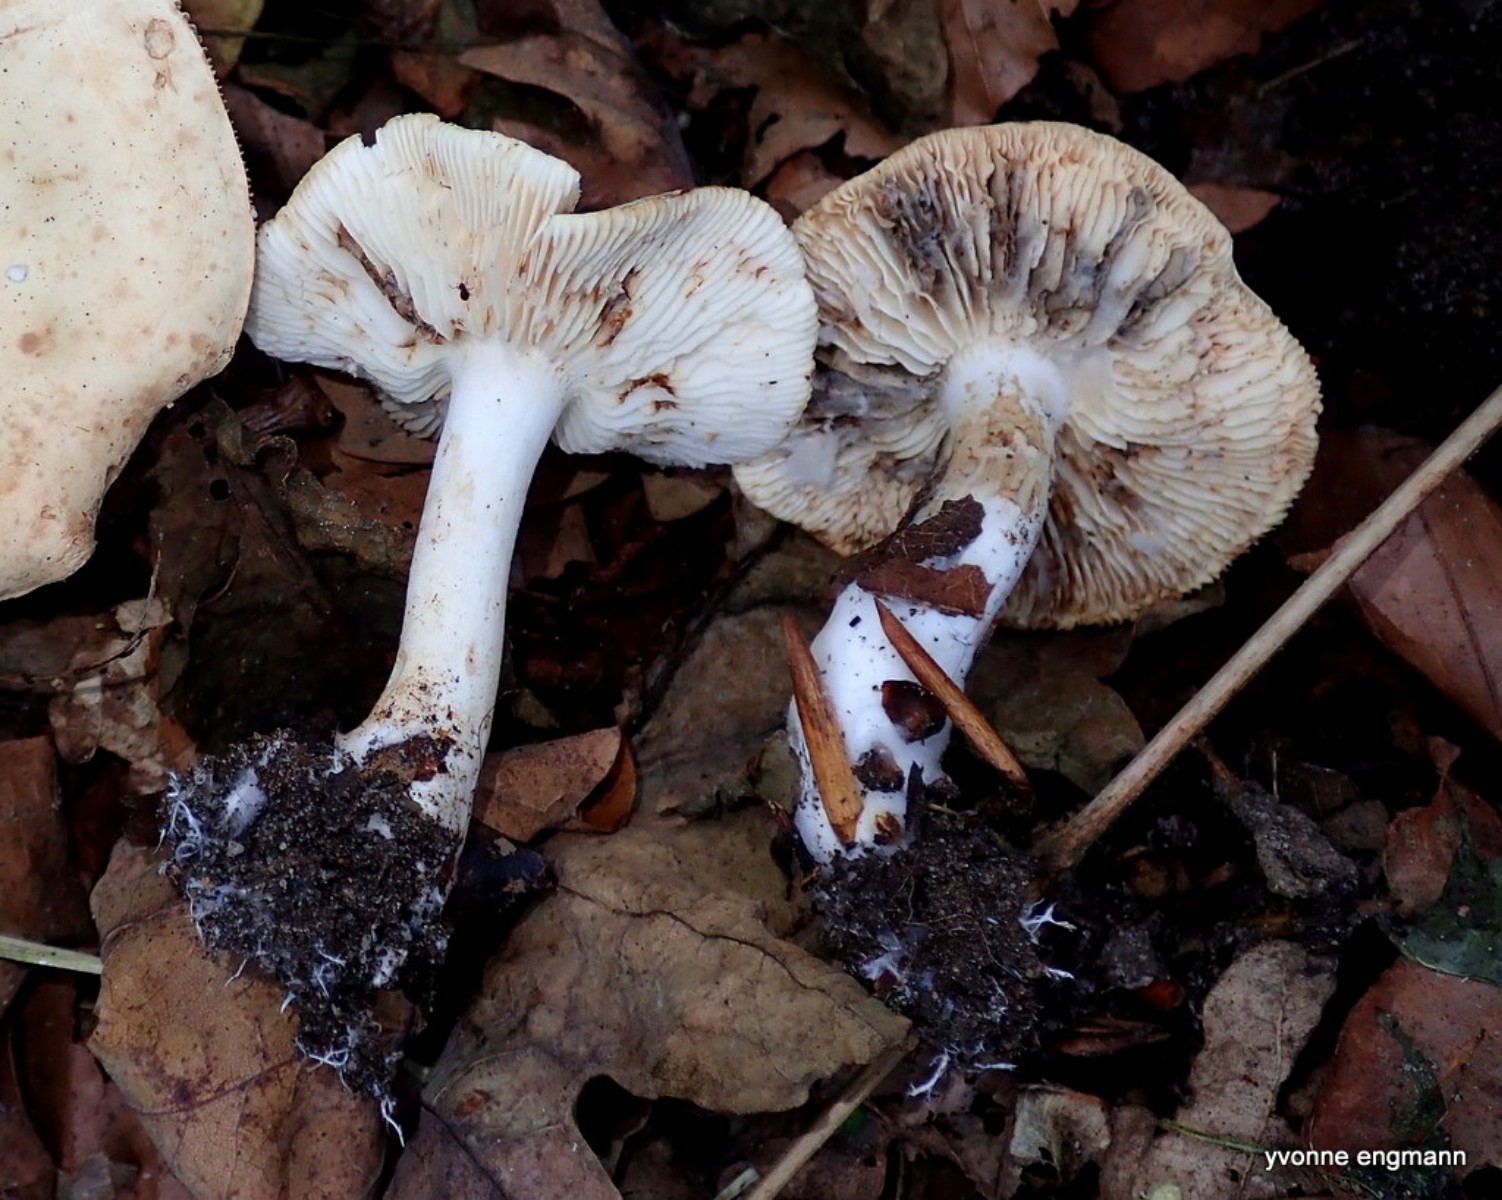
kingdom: Fungi
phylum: Basidiomycota
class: Agaricomycetes
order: Agaricales
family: Tricholomataceae
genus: Tricholoma
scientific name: Tricholoma album
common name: honning-ridderhat
